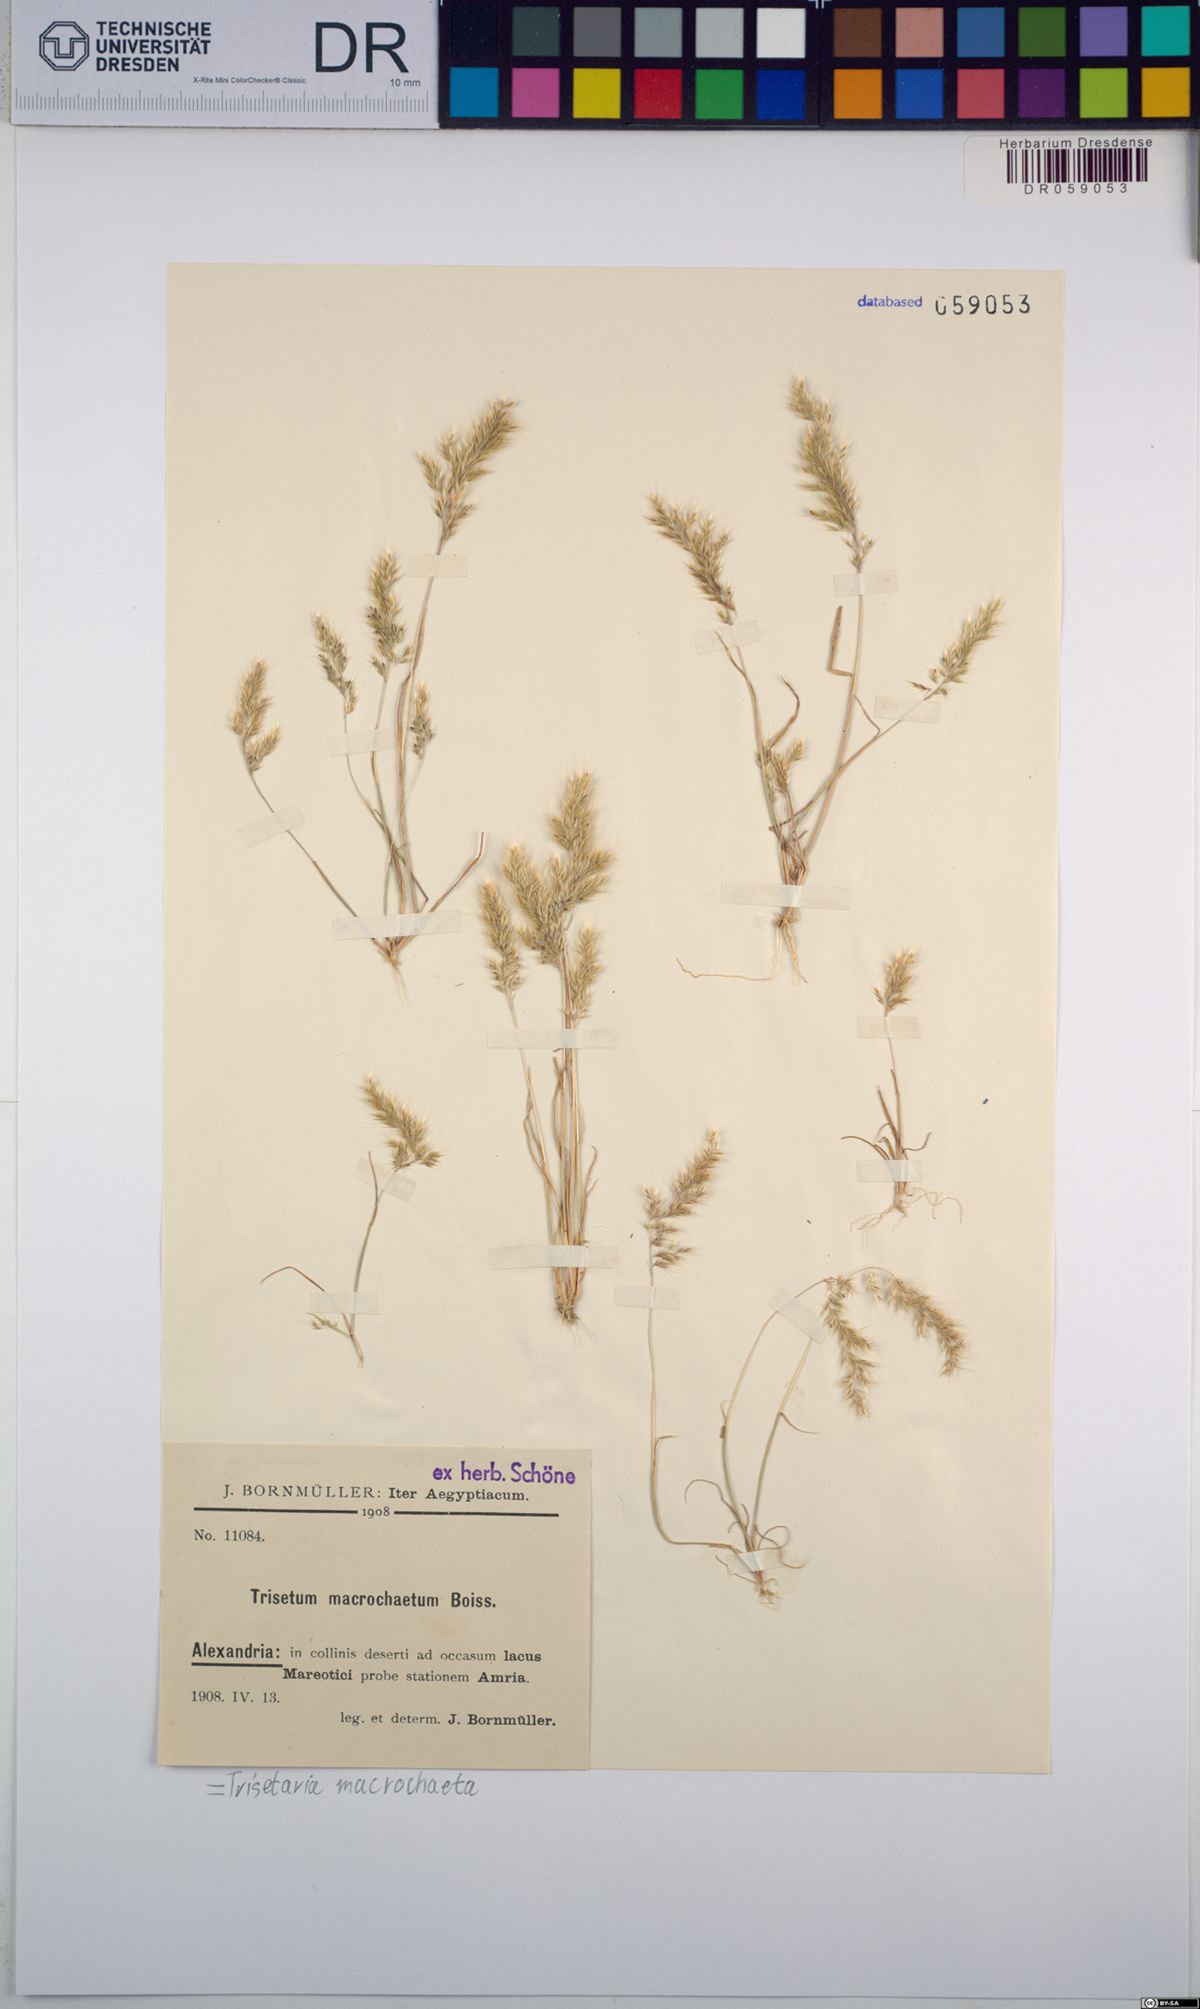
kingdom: Plantae
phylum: Tracheophyta
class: Liliopsida
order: Poales
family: Poaceae
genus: Trisetaria
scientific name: Trisetaria macrochaeta
